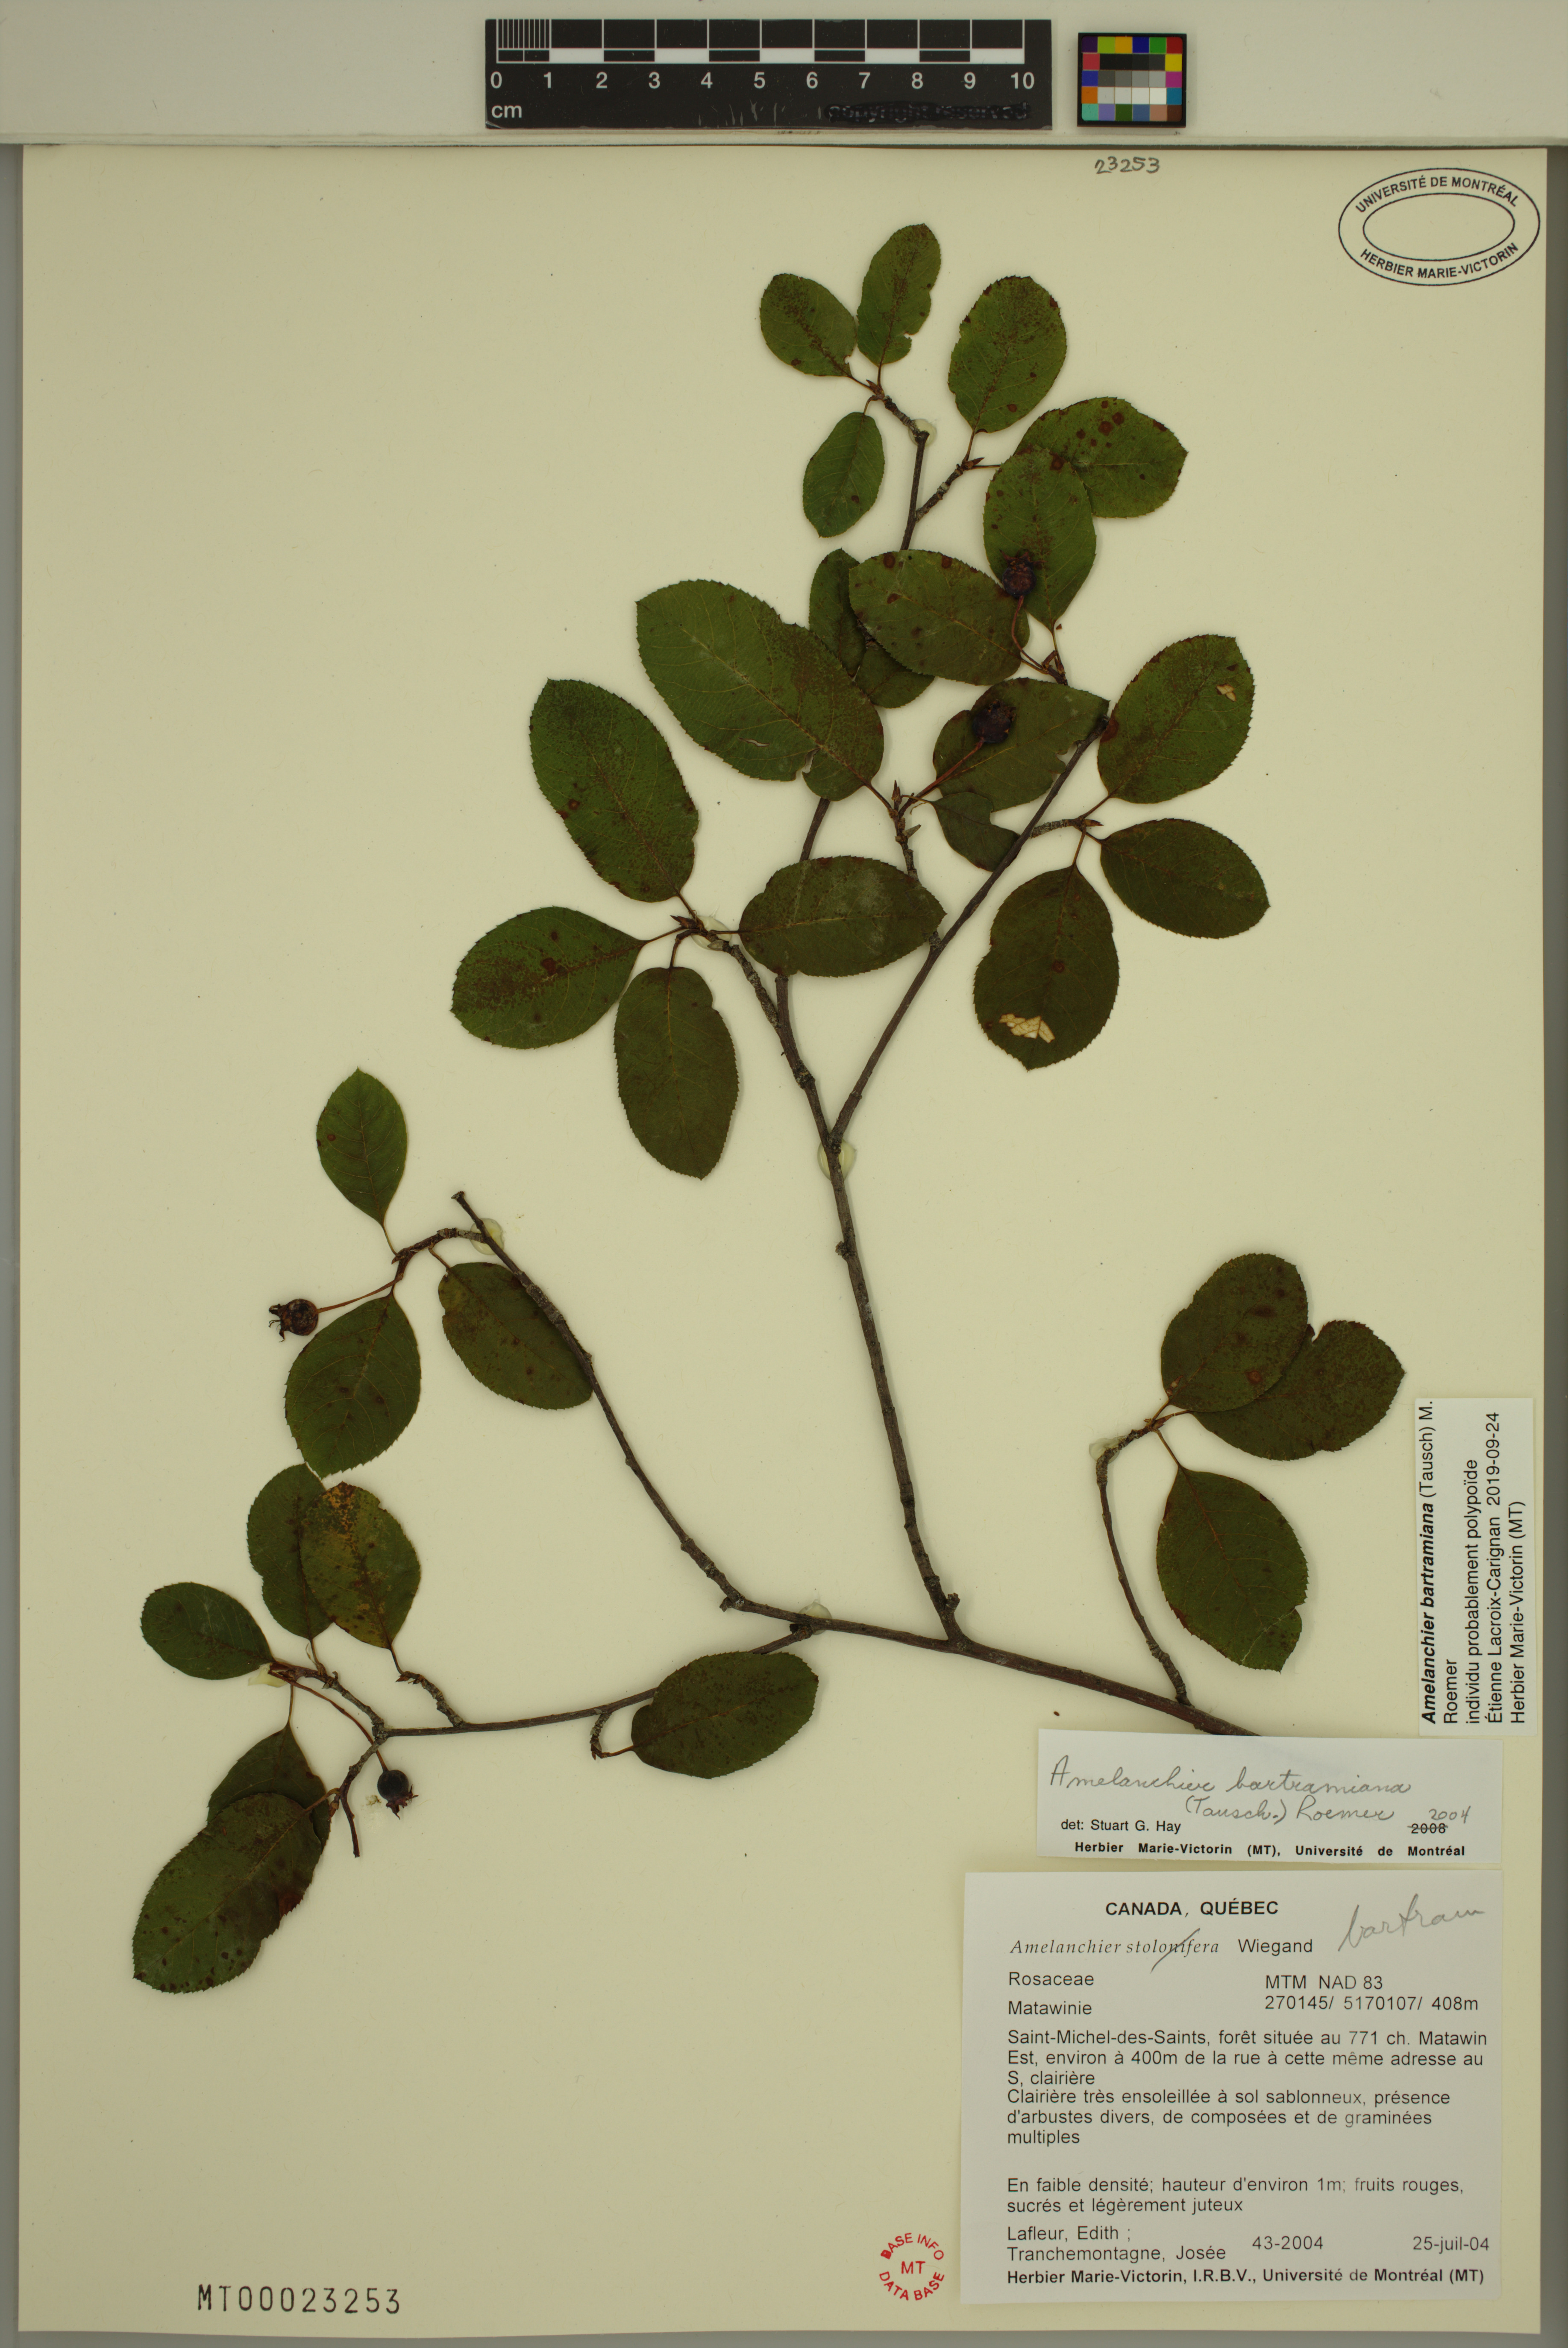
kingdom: Plantae
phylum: Tracheophyta
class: Magnoliopsida
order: Rosales
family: Rosaceae
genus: Amelanchier
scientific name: Amelanchier bartramiana
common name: Mountain serviceberry
